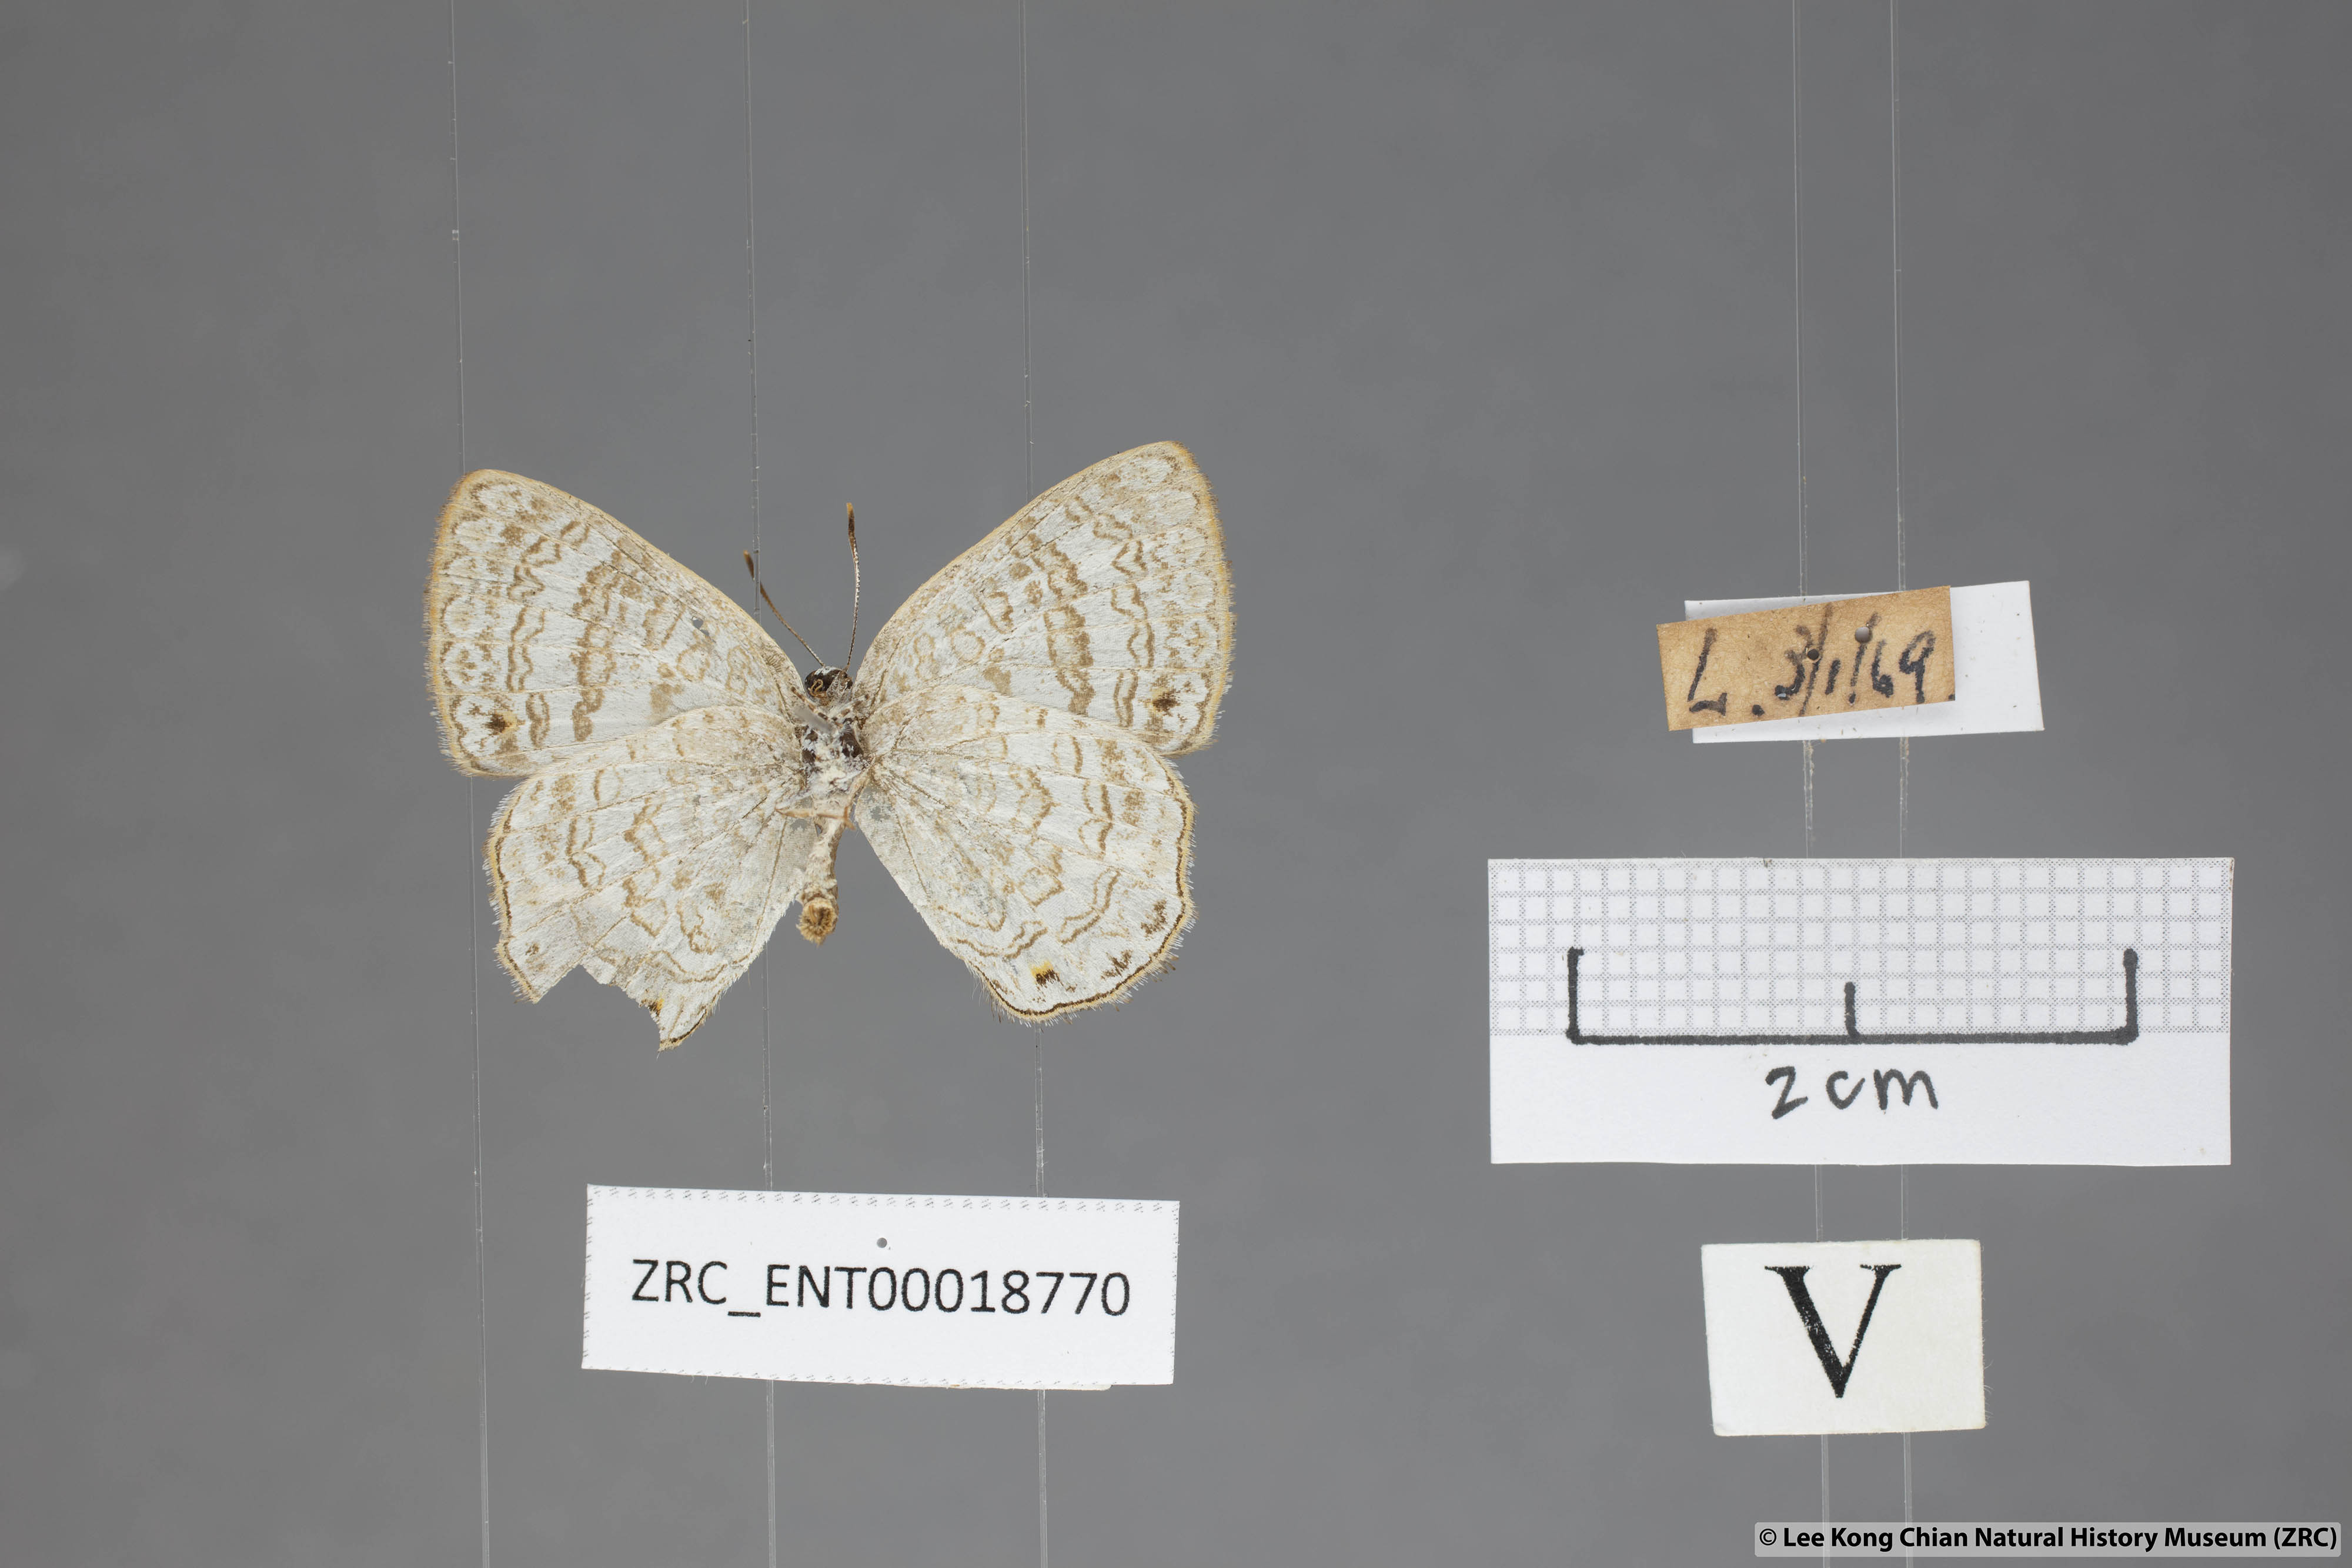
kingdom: Animalia
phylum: Arthropoda
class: Insecta
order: Lepidoptera
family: Lycaenidae
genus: Poritia
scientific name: Poritia erycinoides
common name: Blue gem
